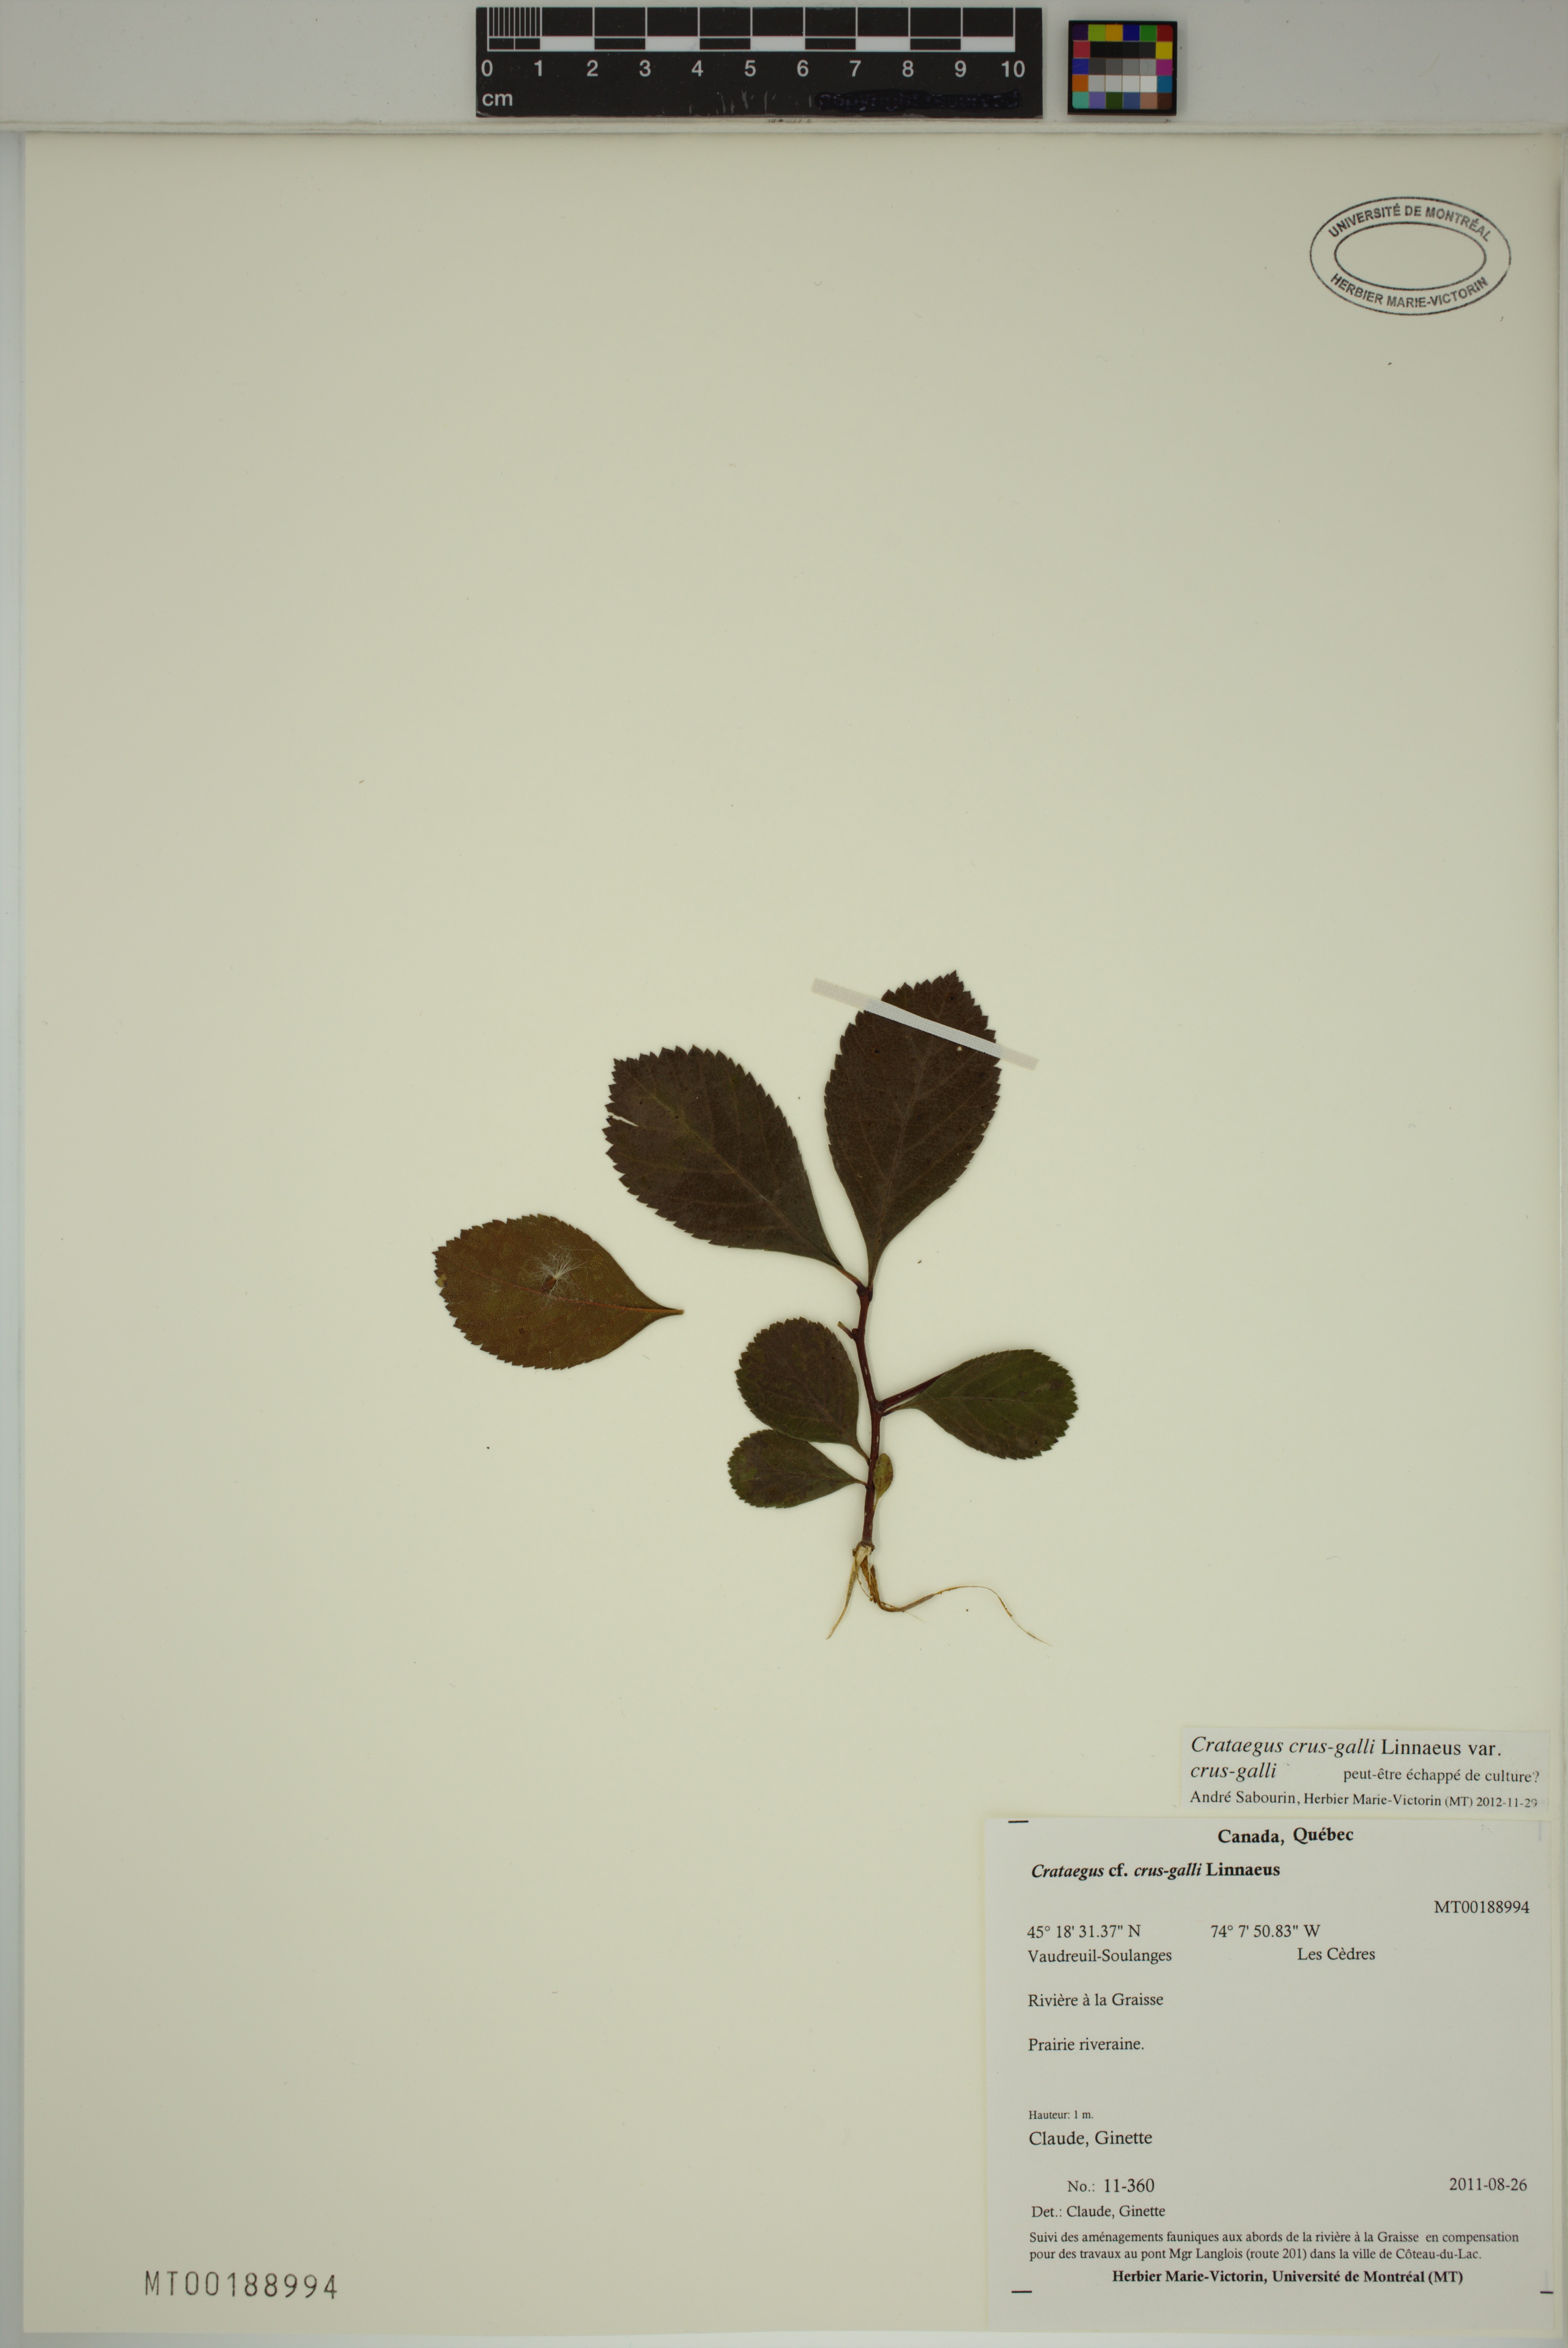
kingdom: Plantae
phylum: Tracheophyta
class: Magnoliopsida
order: Rosales
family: Rosaceae
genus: Crataegus
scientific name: Crataegus crus-galli
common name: Cockspurthorn
